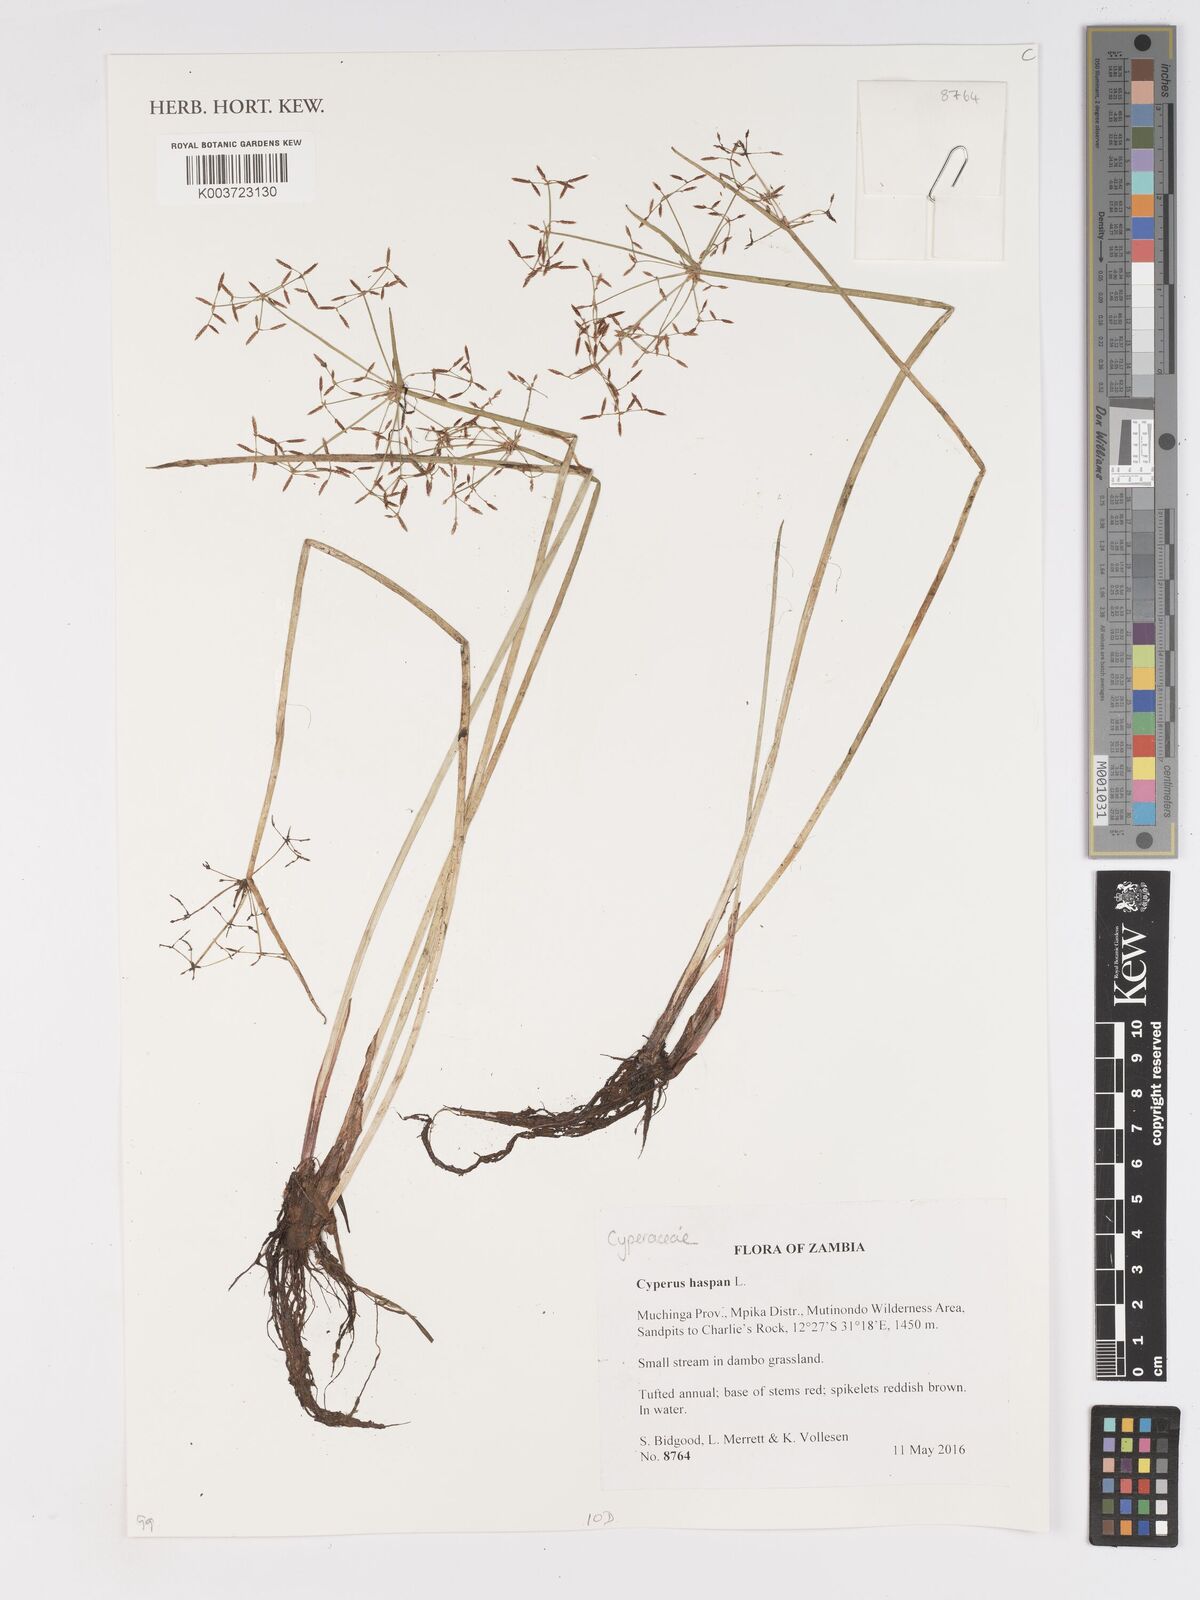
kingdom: Plantae
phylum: Tracheophyta
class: Liliopsida
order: Poales
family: Cyperaceae
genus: Cyperus
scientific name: Cyperus haspan
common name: Haspan flatsedge
